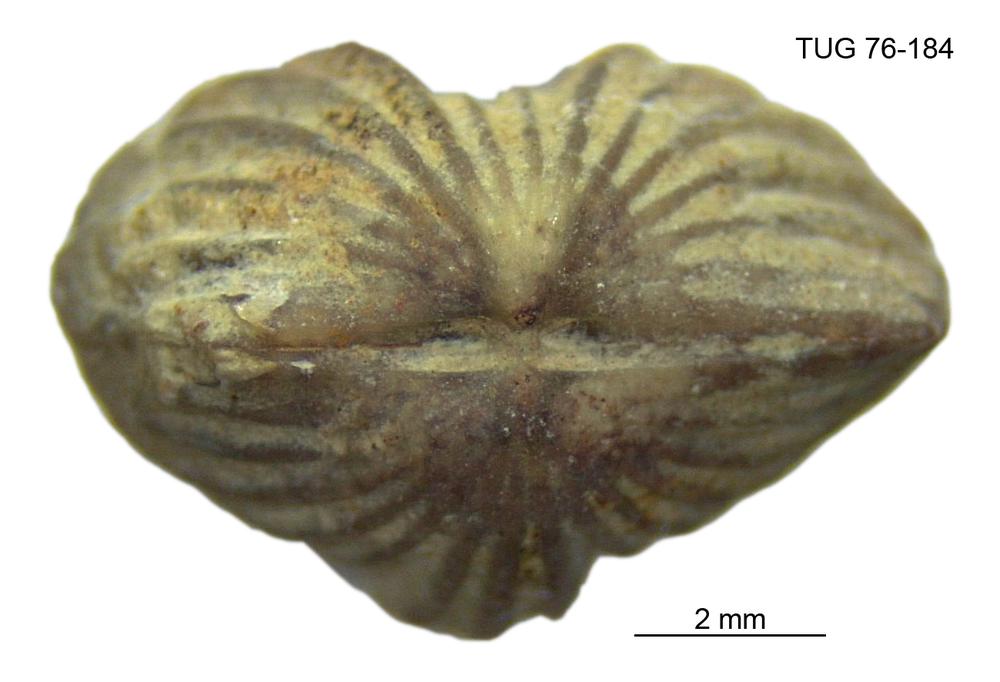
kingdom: Animalia
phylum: Brachiopoda
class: Rhynchonellata
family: Plectorthidae
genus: Platystrophia
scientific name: Platystrophia dentata
